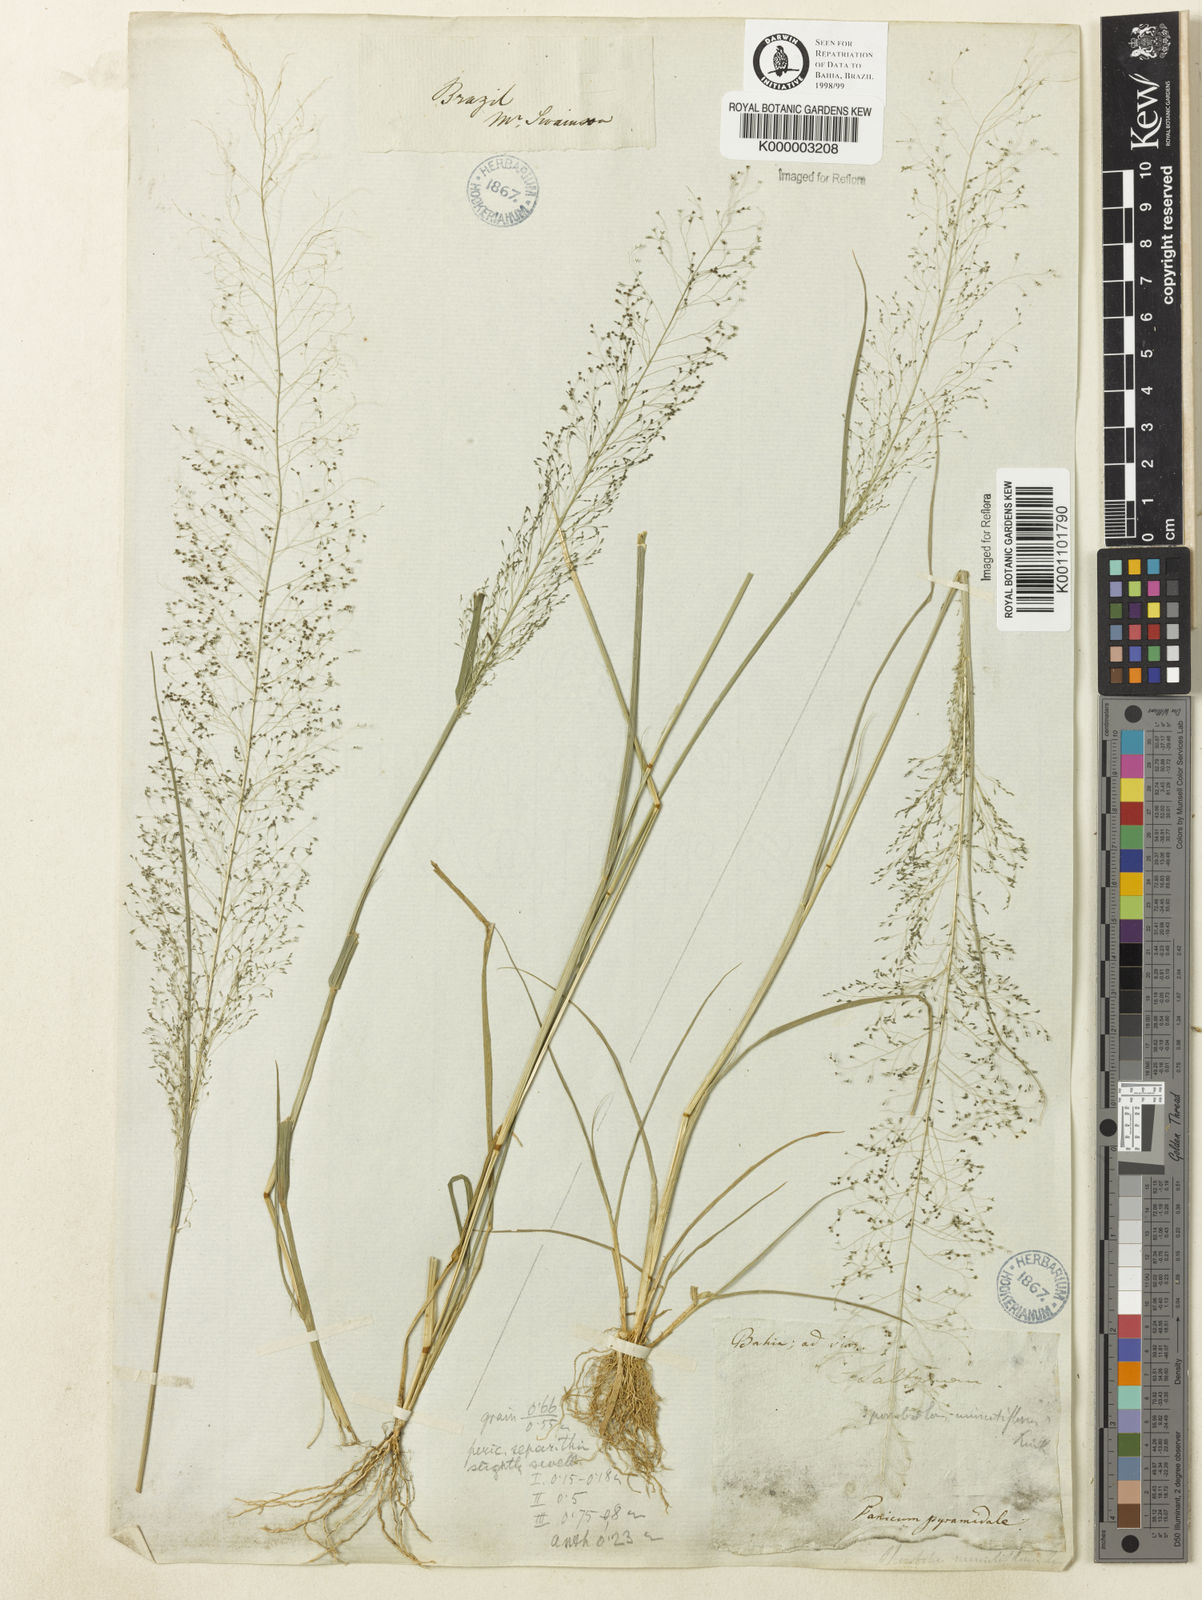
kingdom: Plantae
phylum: Tracheophyta
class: Liliopsida
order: Poales
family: Poaceae
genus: Sporobolus
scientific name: Sporobolus tenuissimus
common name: Tropical dropseed
